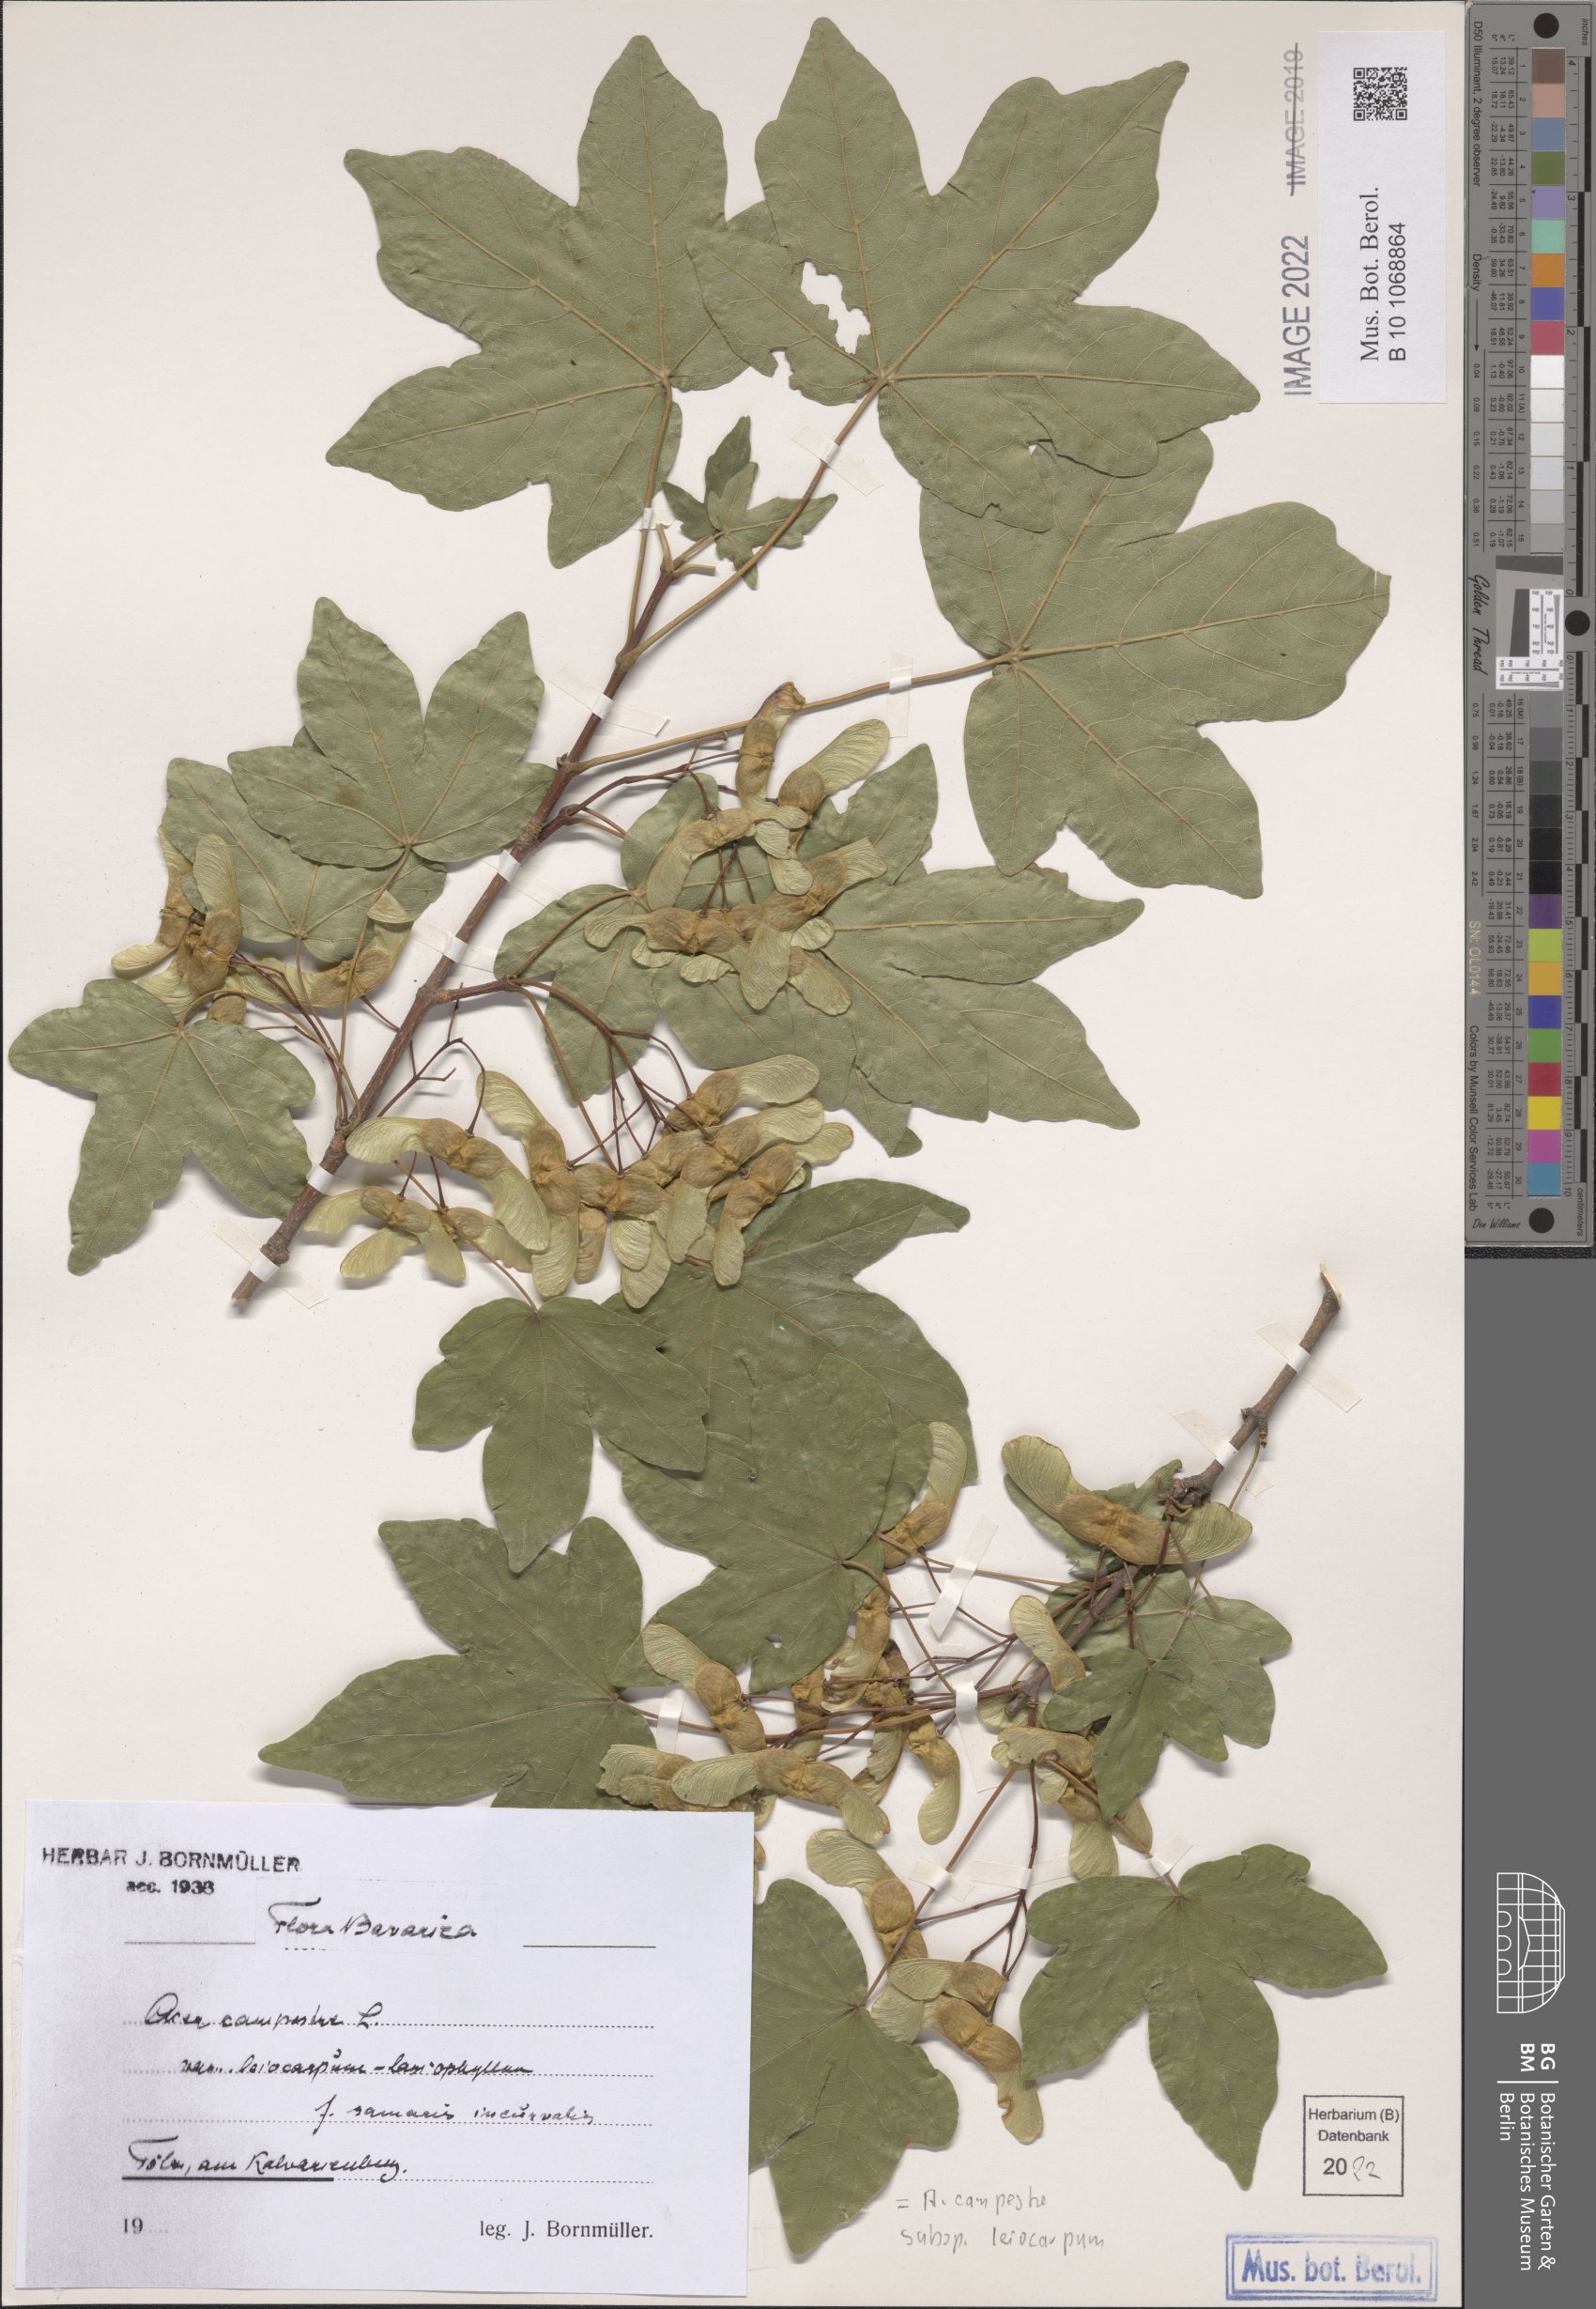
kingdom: Plantae
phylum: Tracheophyta
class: Magnoliopsida
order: Sapindales
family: Sapindaceae
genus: Acer
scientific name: Acer campestre
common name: Field maple
